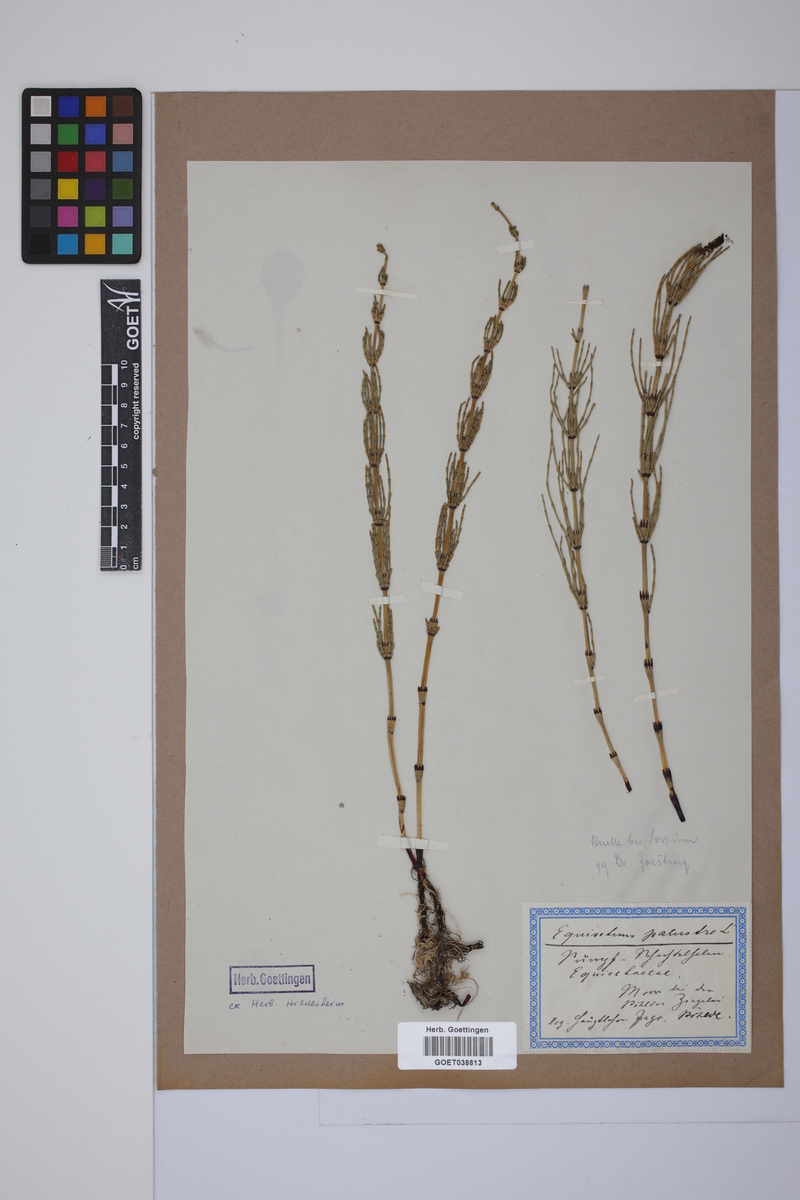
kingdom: Plantae
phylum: Tracheophyta
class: Polypodiopsida
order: Equisetales
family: Equisetaceae
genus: Equisetum
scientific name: Equisetum palustre
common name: Marsh horsetail
